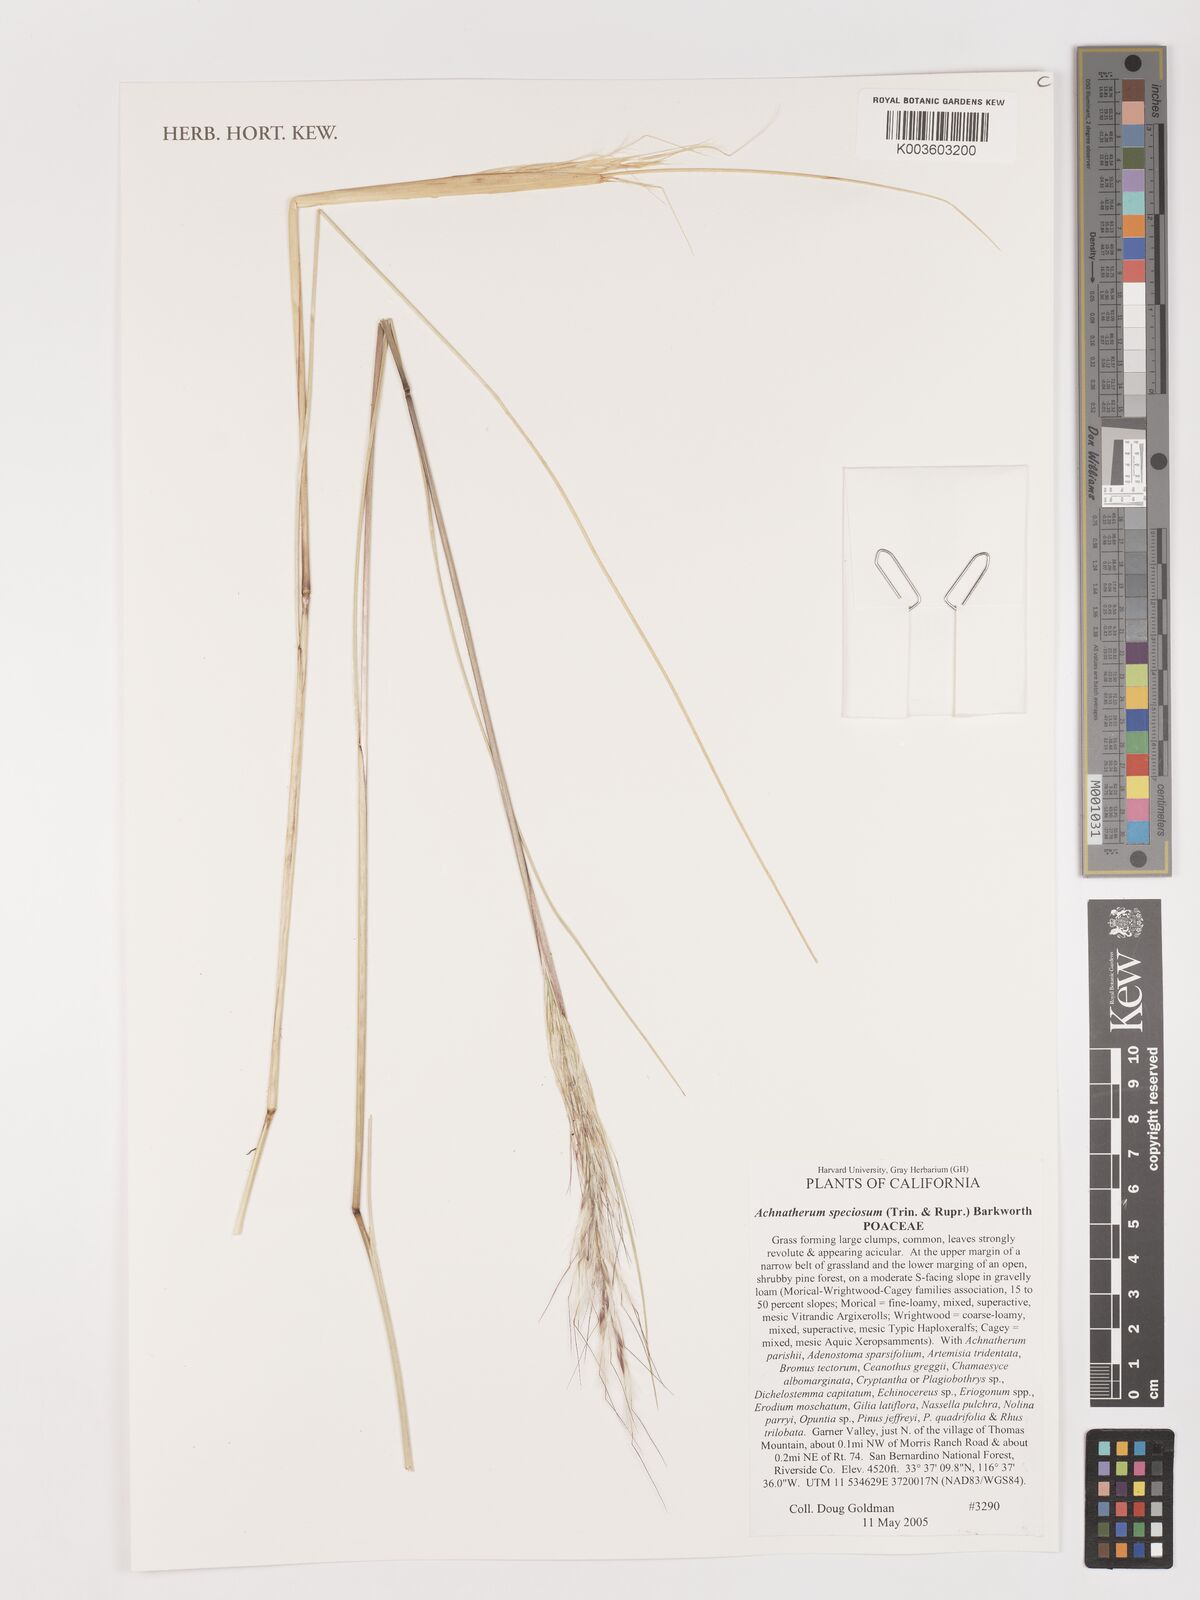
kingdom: Plantae
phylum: Tracheophyta
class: Liliopsida
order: Poales
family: Poaceae
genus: Pappostipa
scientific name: Pappostipa speciosa
